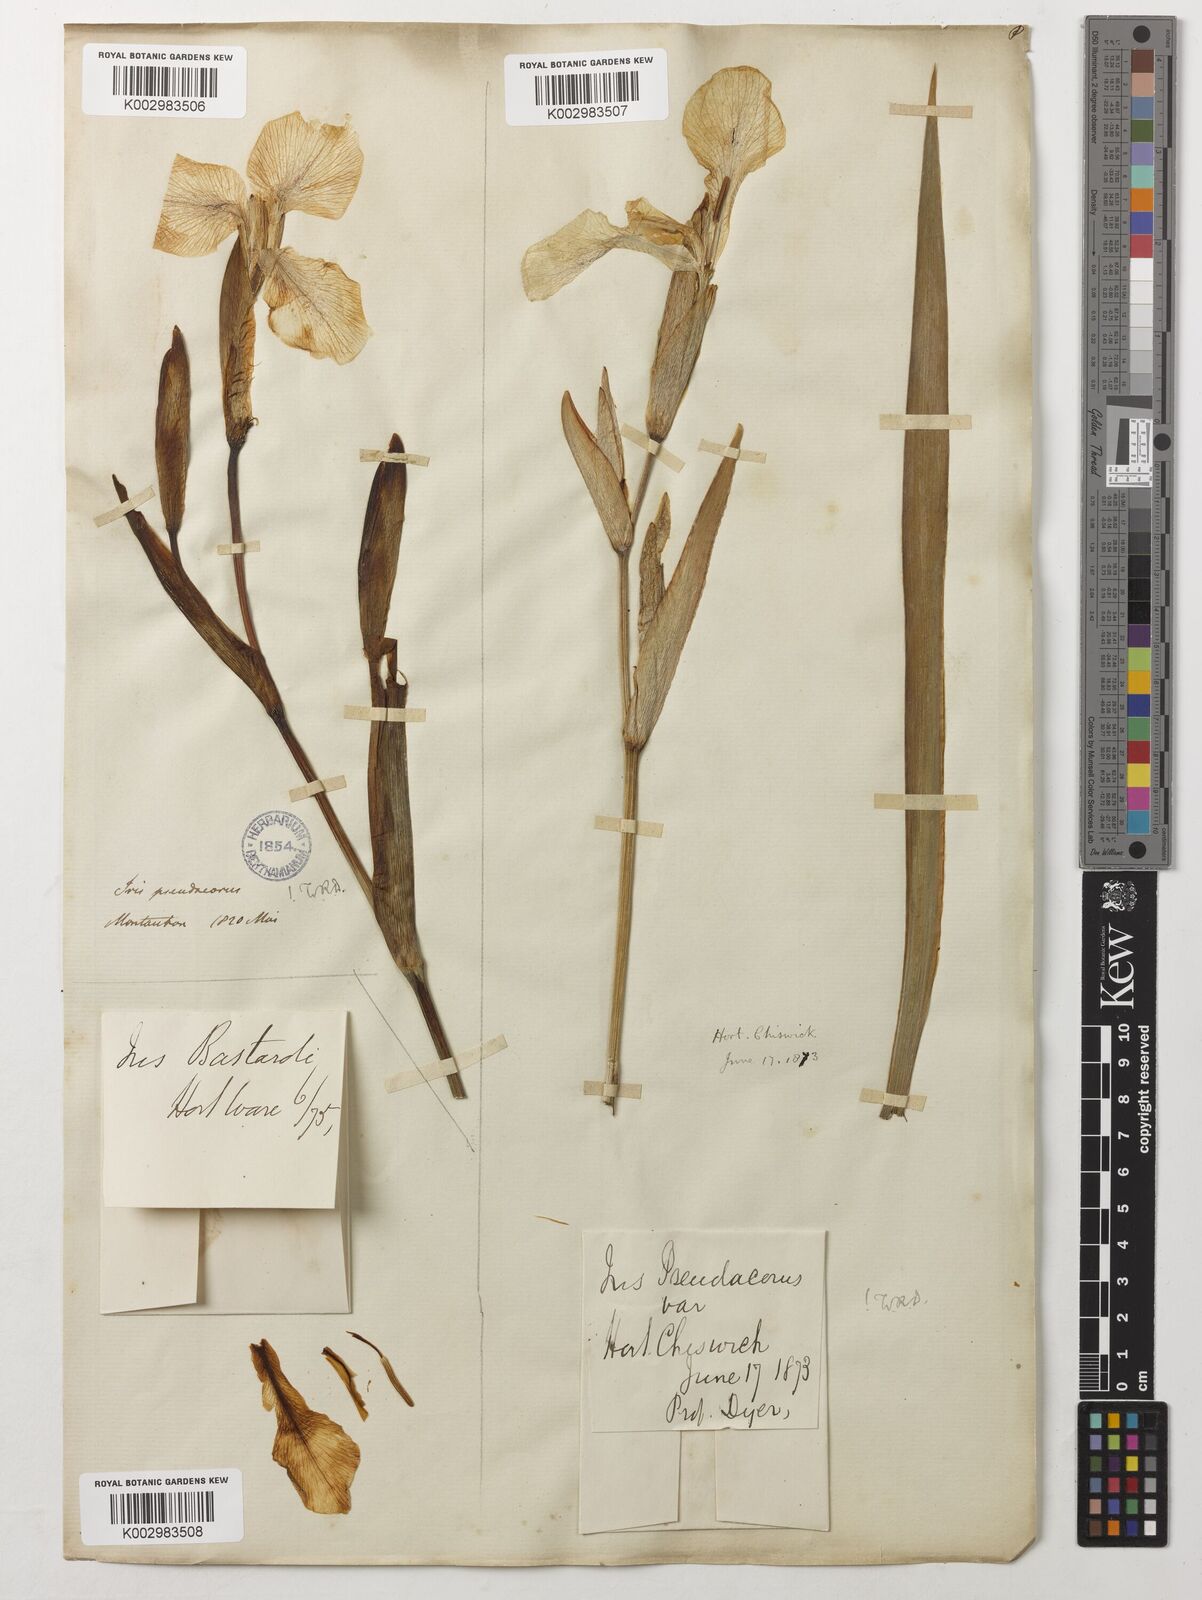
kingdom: Plantae
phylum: Tracheophyta
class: Liliopsida
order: Asparagales
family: Iridaceae
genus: Iris
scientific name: Iris pseudacorus
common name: Yellow flag
